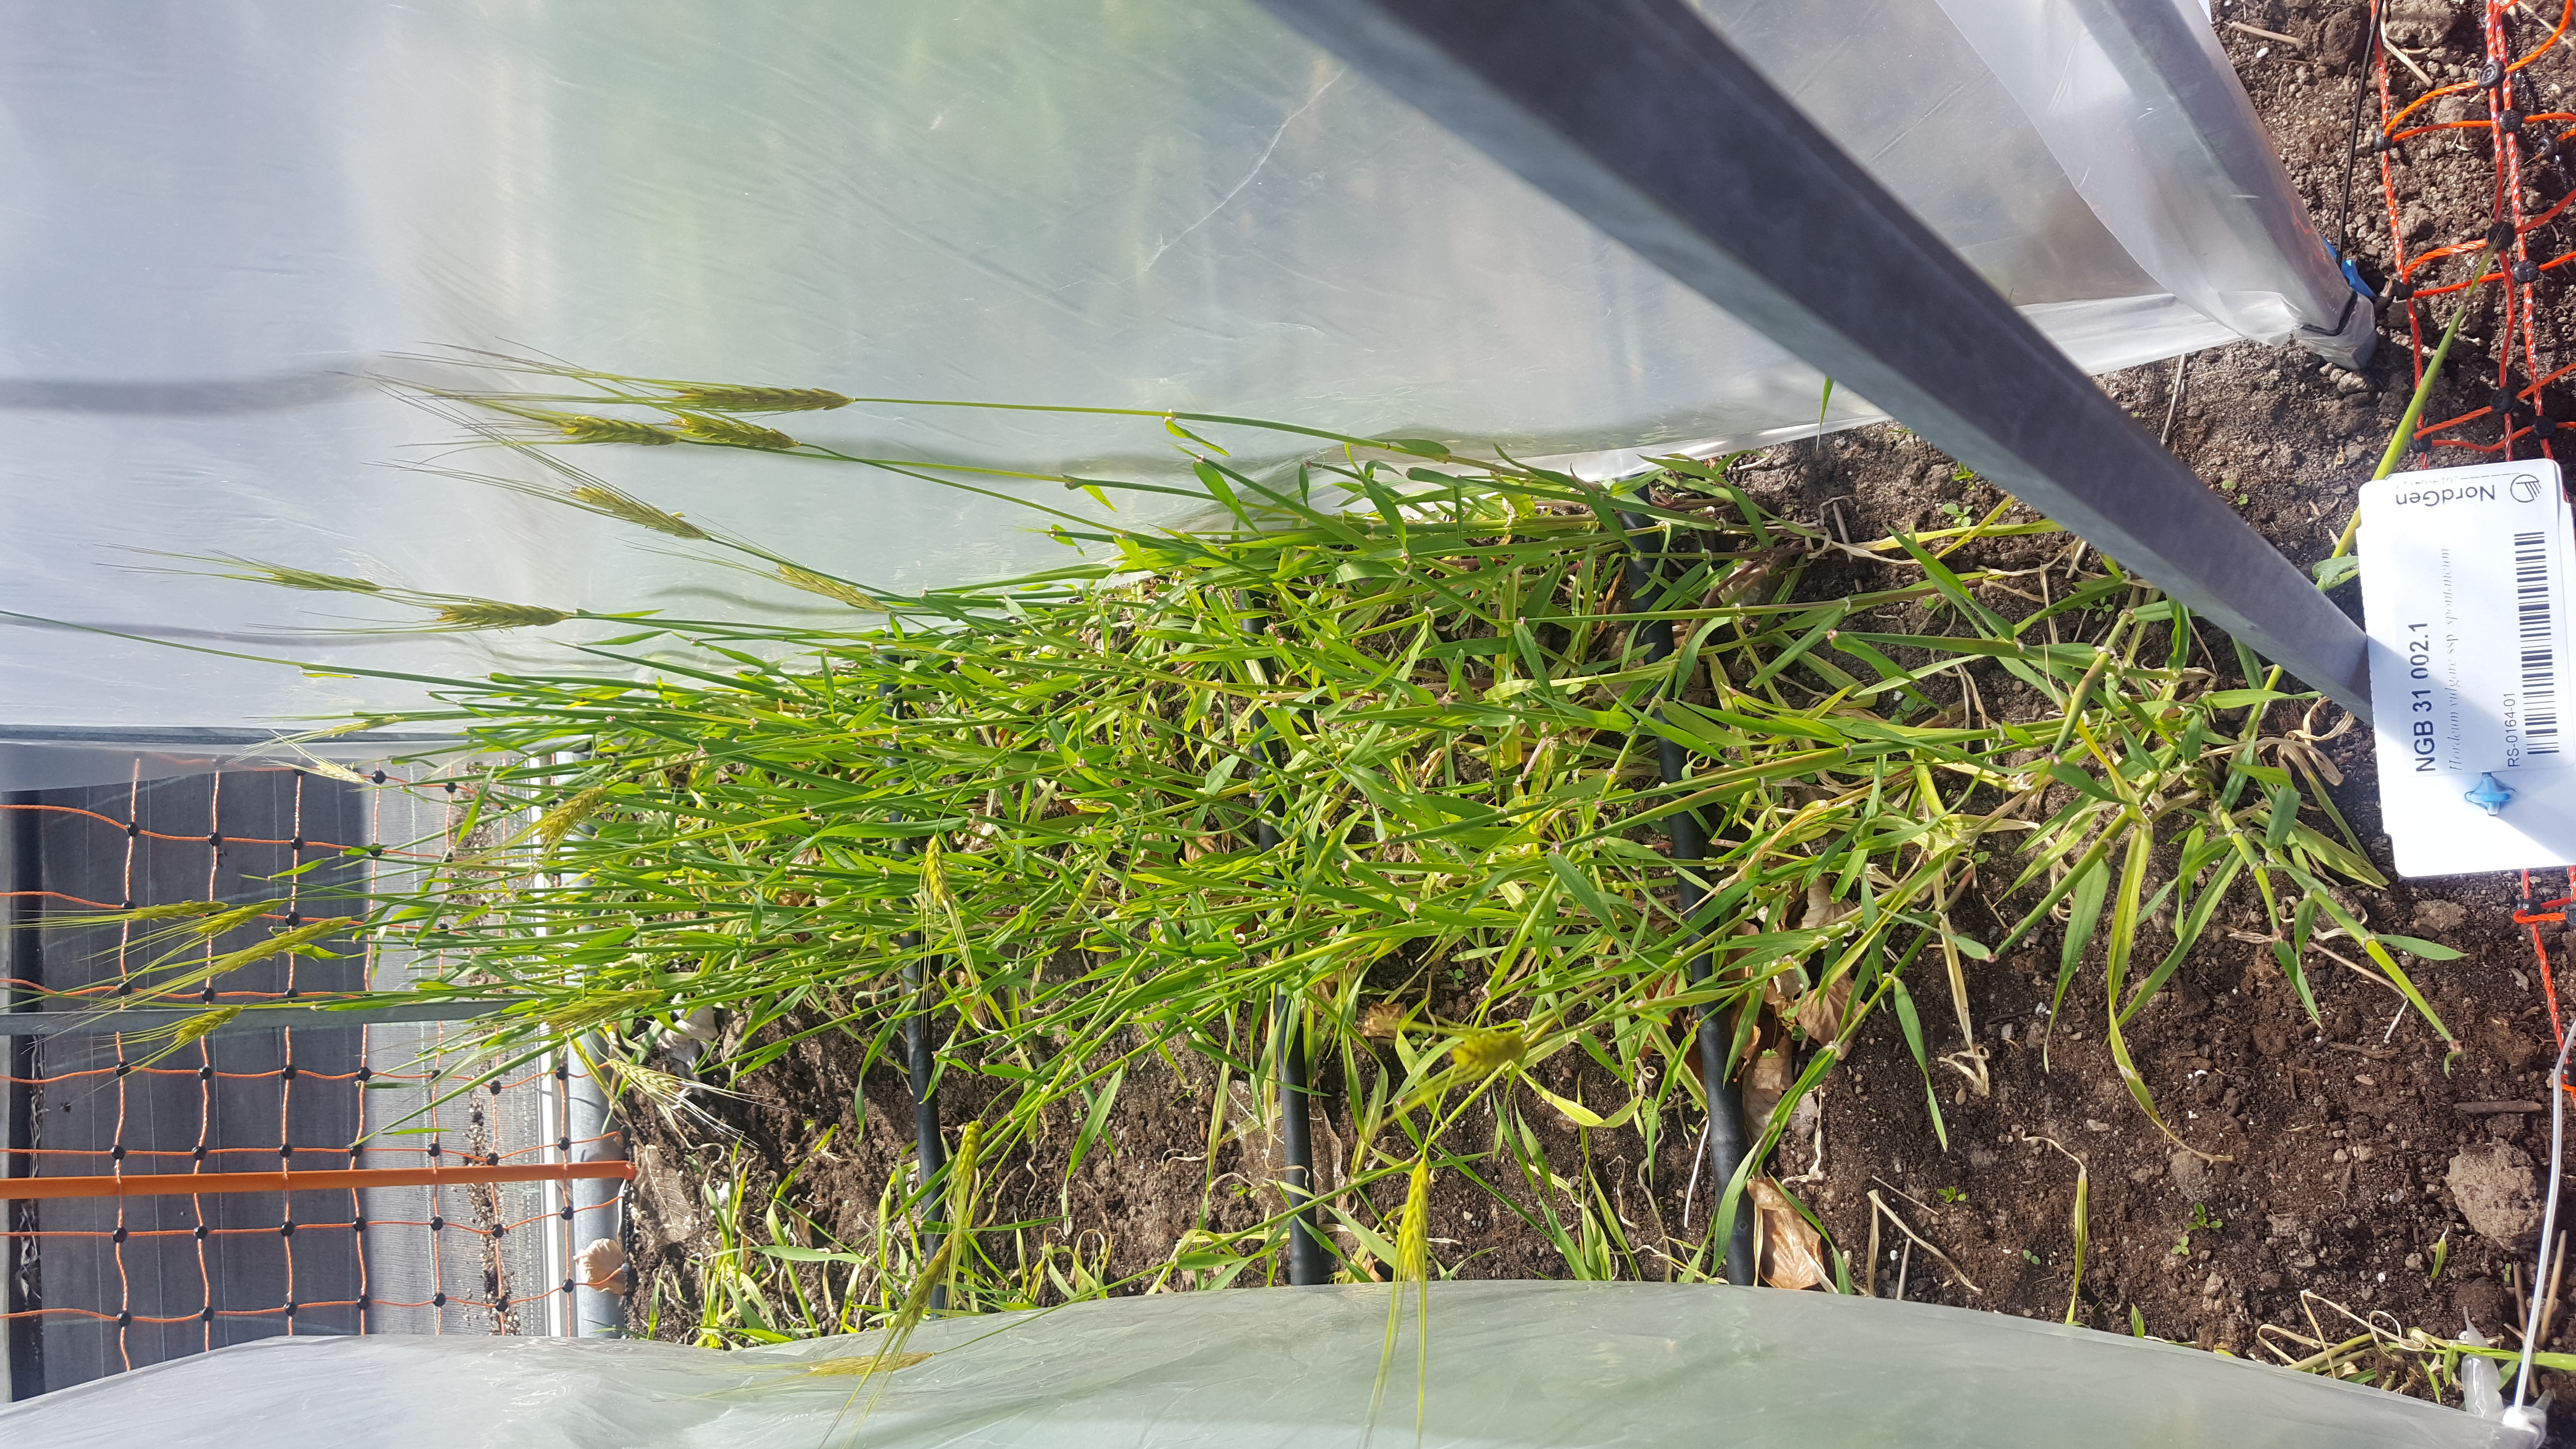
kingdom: Plantae
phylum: Tracheophyta
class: Liliopsida
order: Poales
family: Poaceae
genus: Hordeum
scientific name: Hordeum spontaneum
